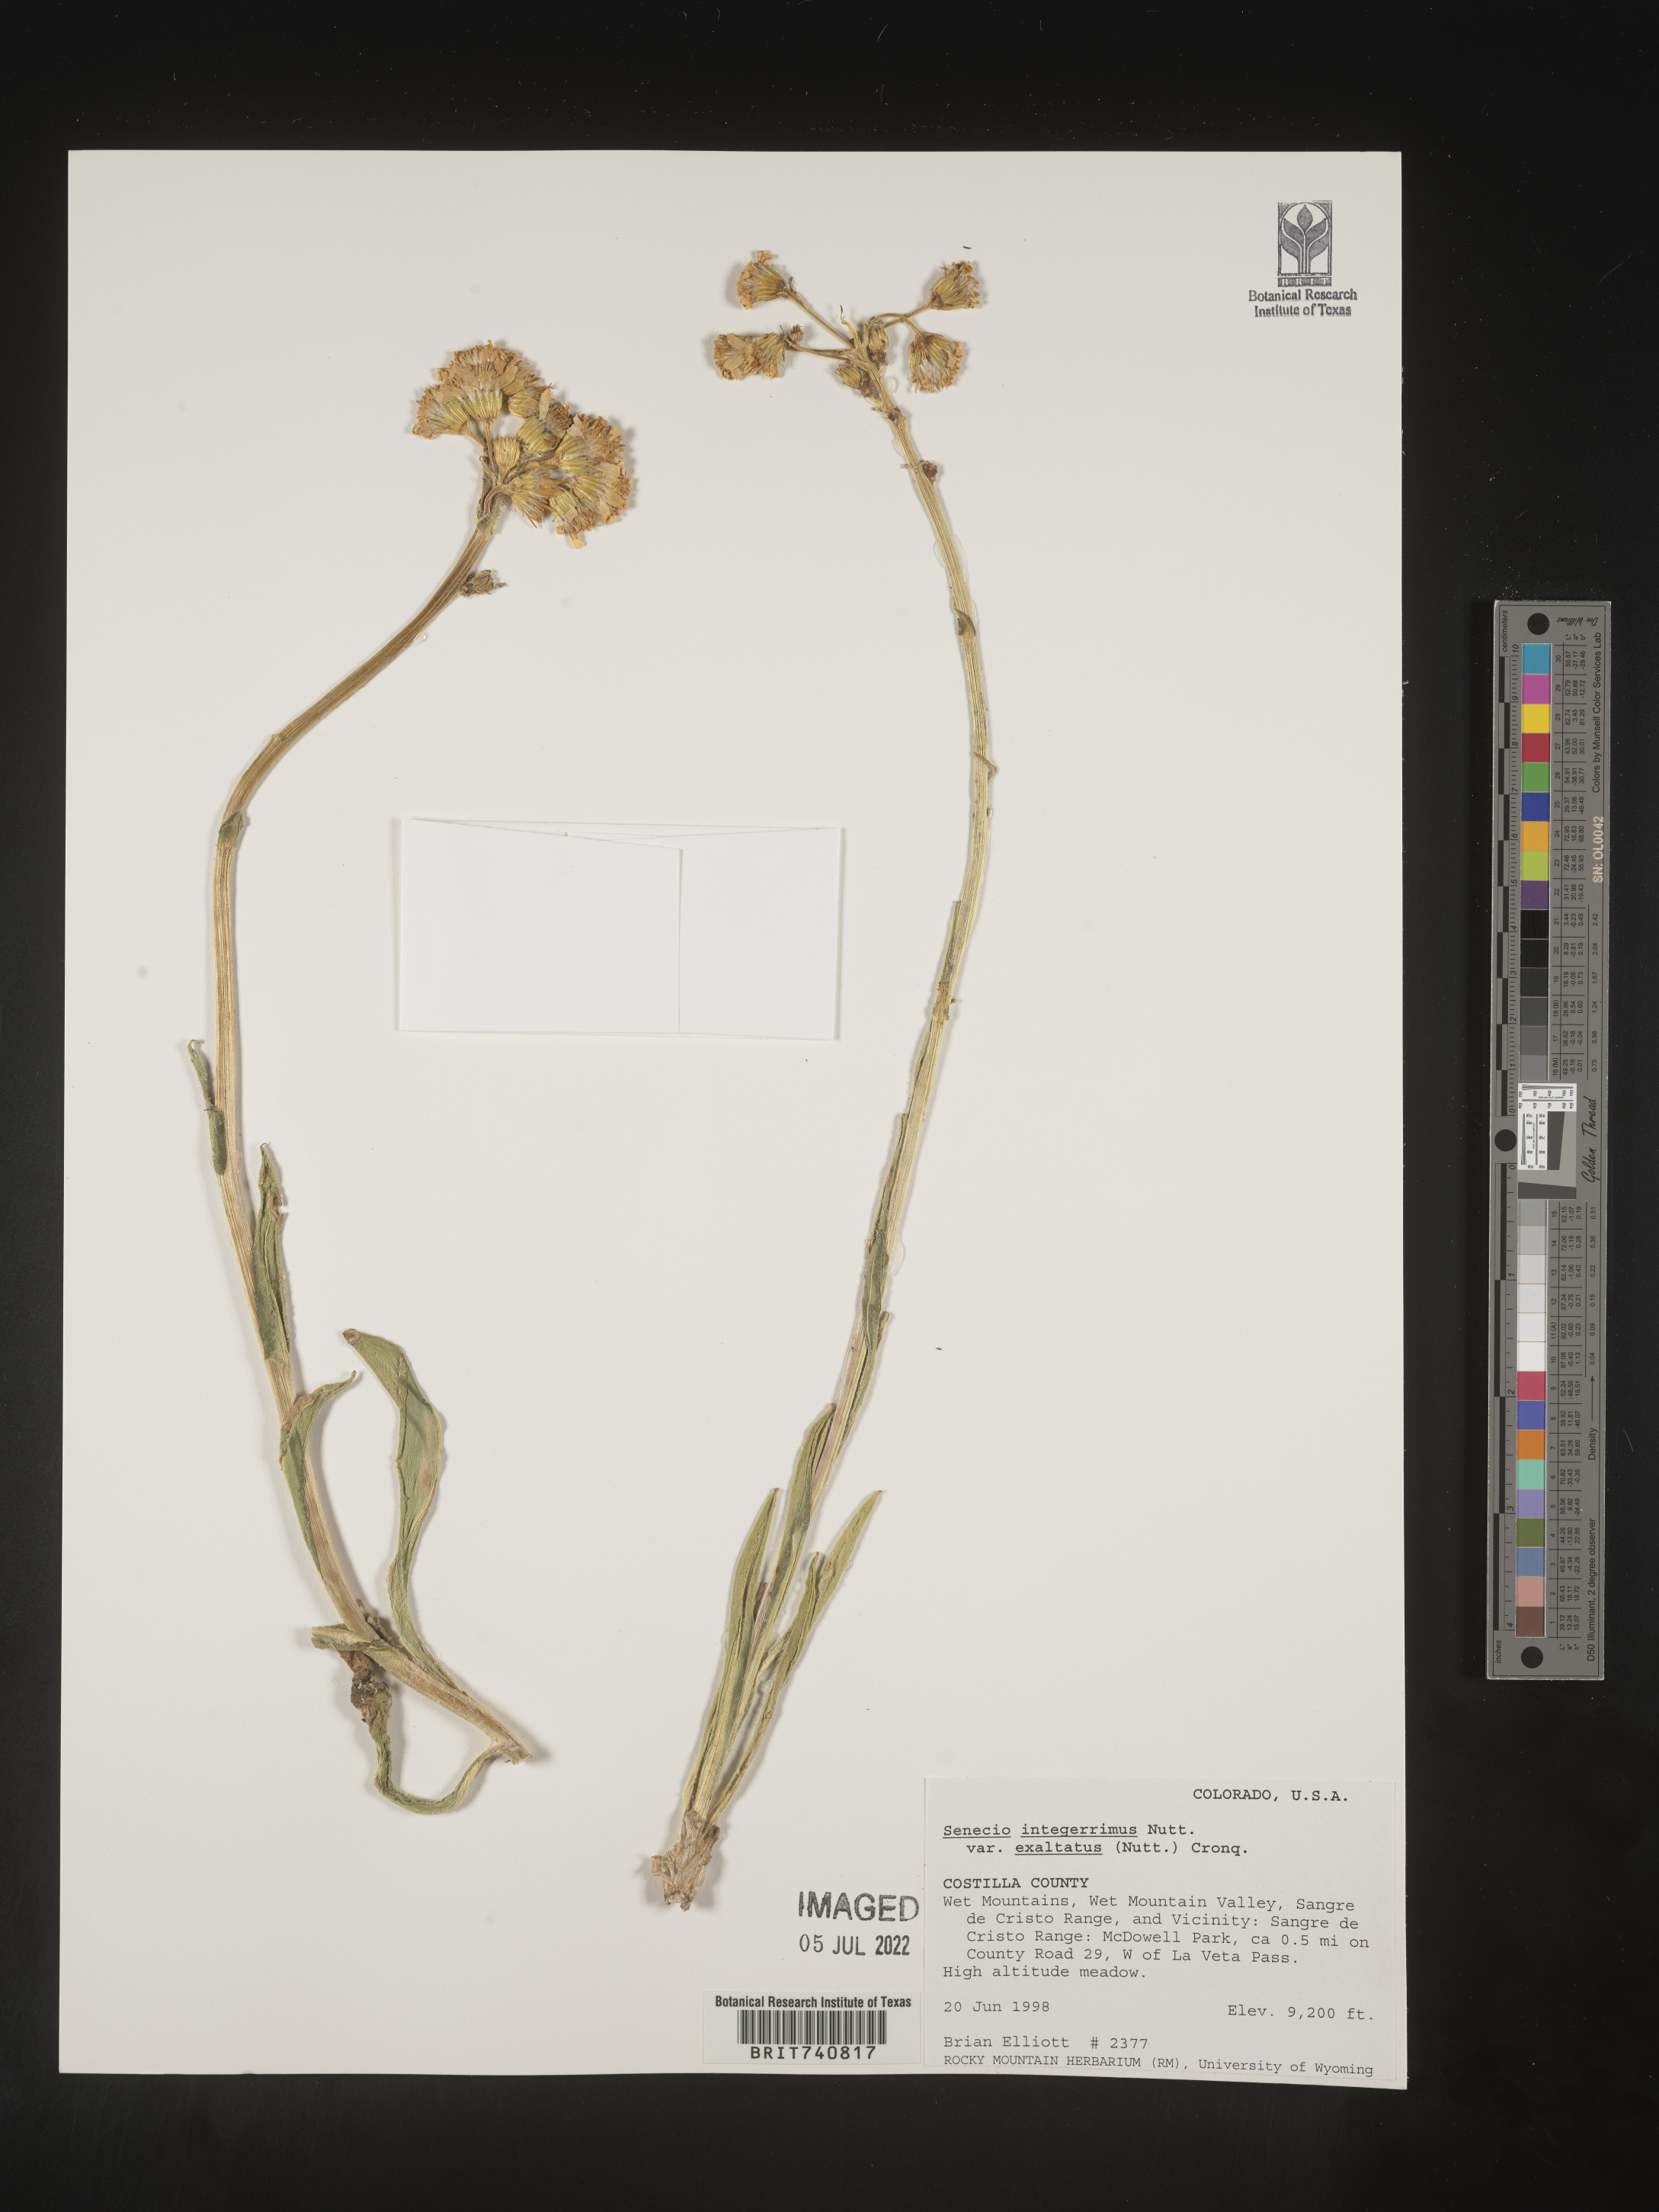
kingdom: Plantae
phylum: Tracheophyta
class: Magnoliopsida
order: Asterales
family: Asteraceae
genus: Senecio
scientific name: Senecio integerrimus
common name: Gaugeplant
